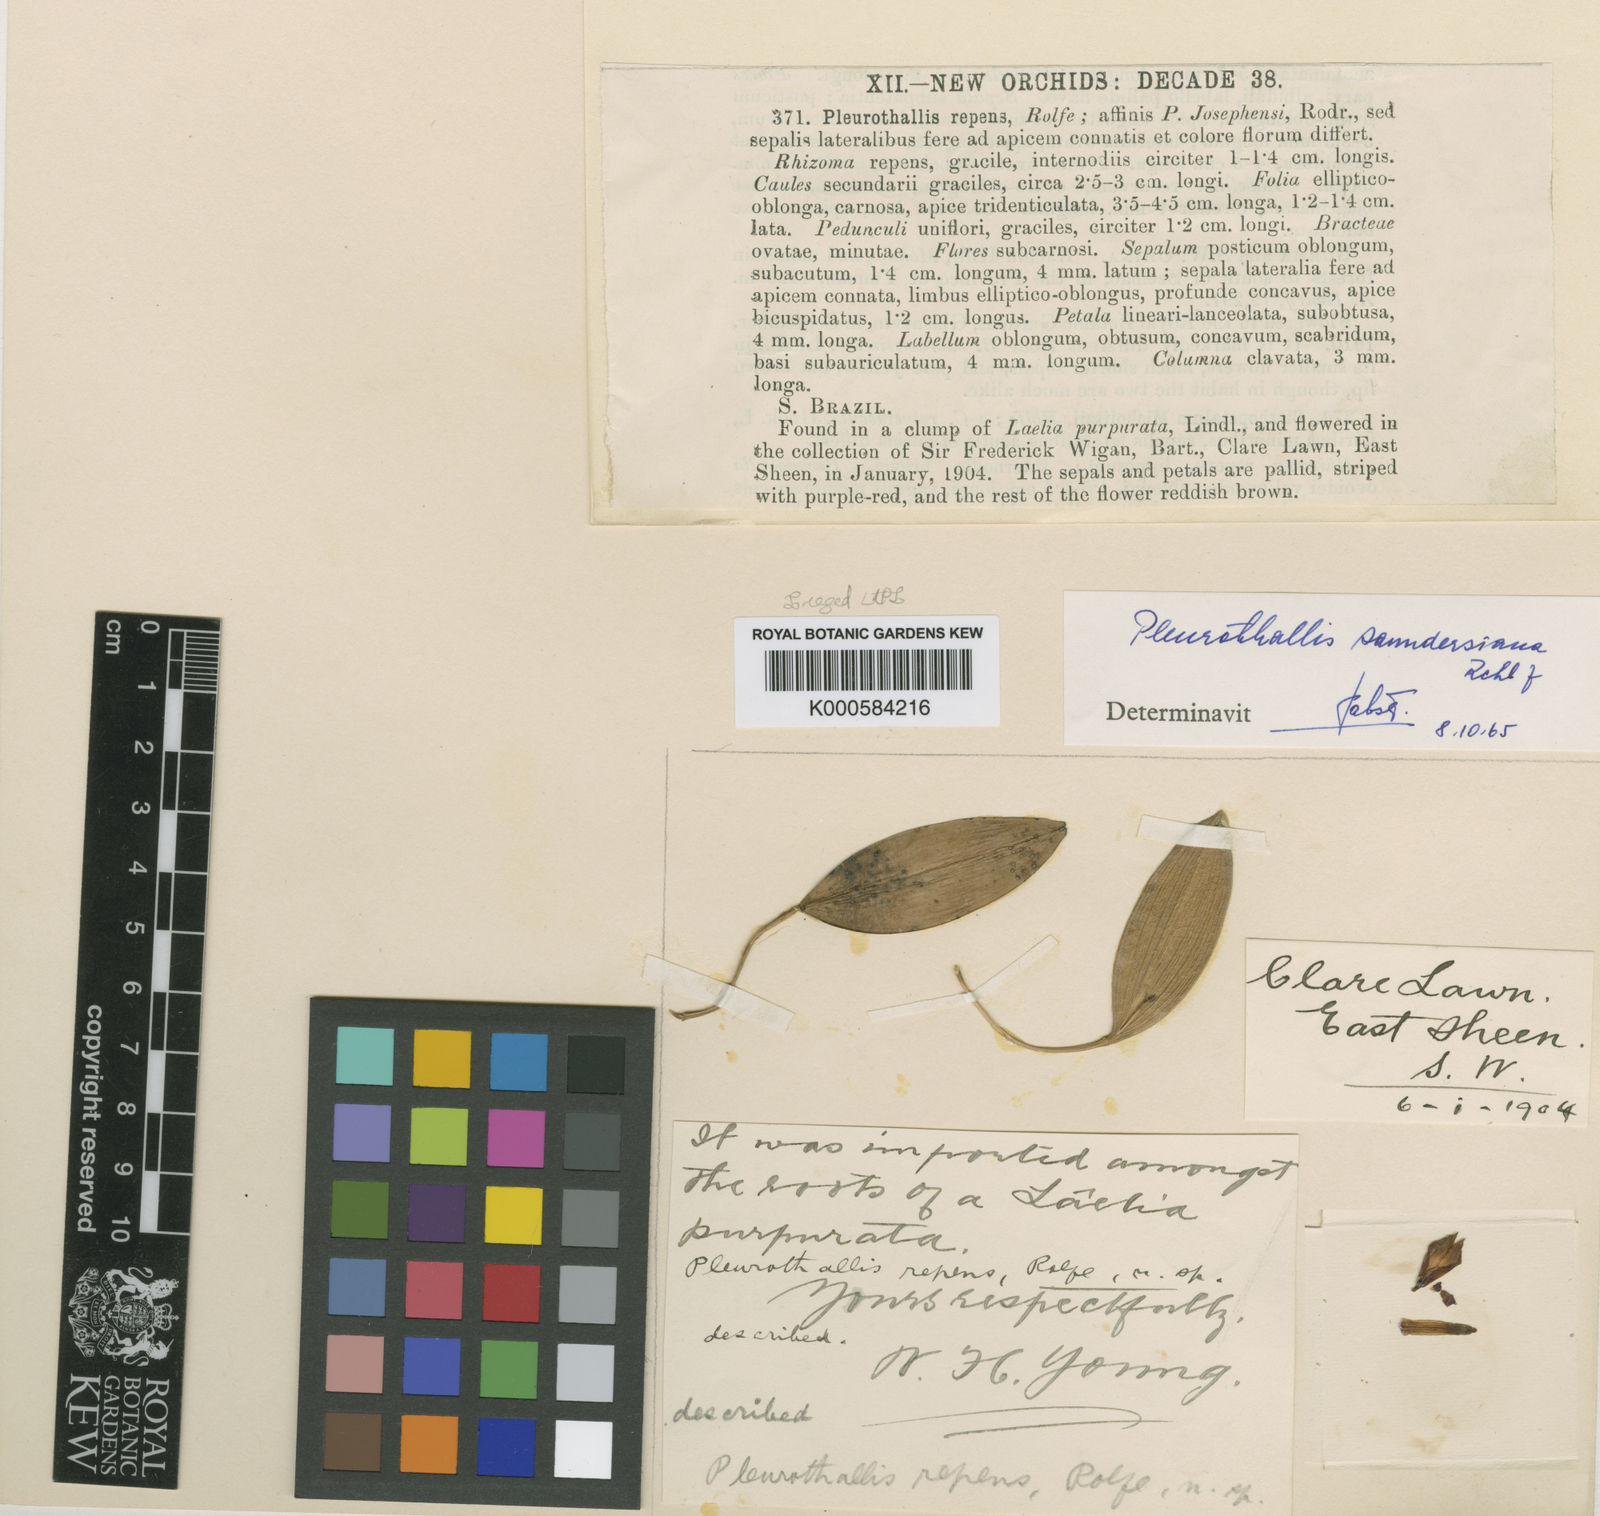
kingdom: Plantae
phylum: Tracheophyta
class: Liliopsida
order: Asparagales
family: Orchidaceae
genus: Acianthera
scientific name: Acianthera saundersiana
